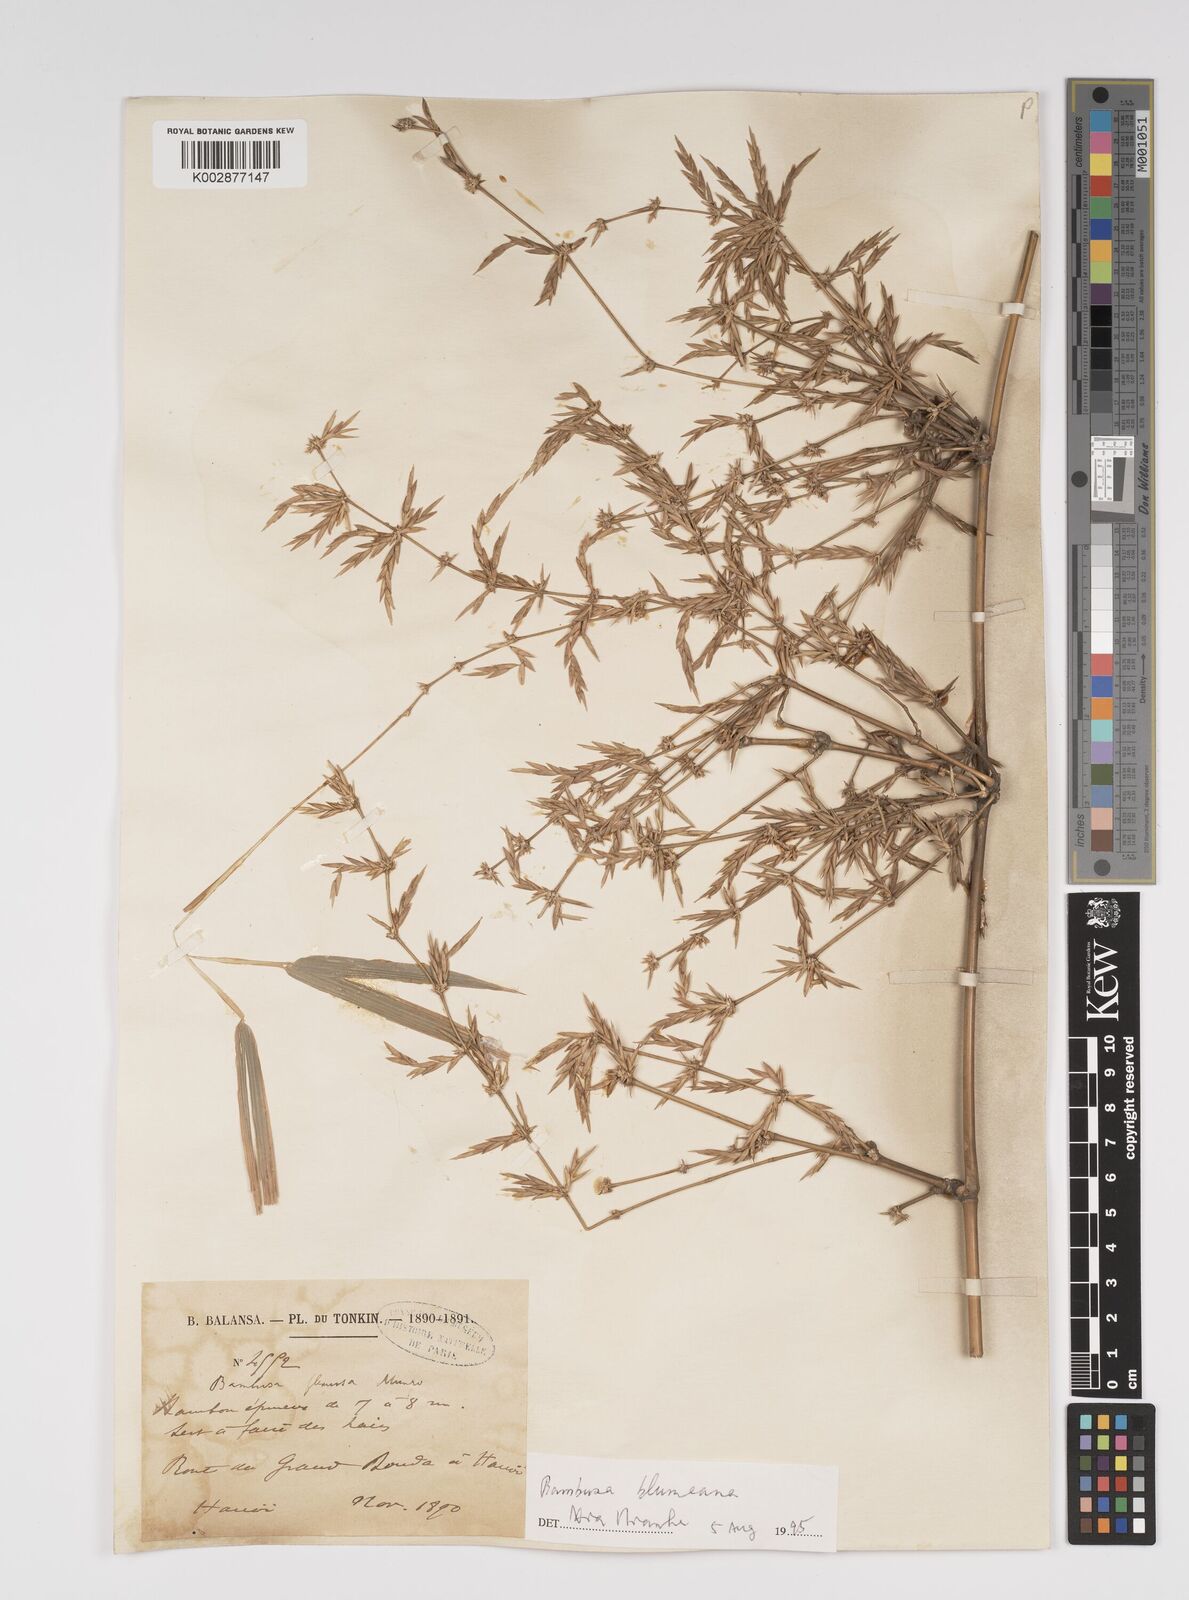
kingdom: Plantae
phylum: Tracheophyta
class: Liliopsida
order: Poales
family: Poaceae
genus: Bambusa
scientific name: Bambusa
